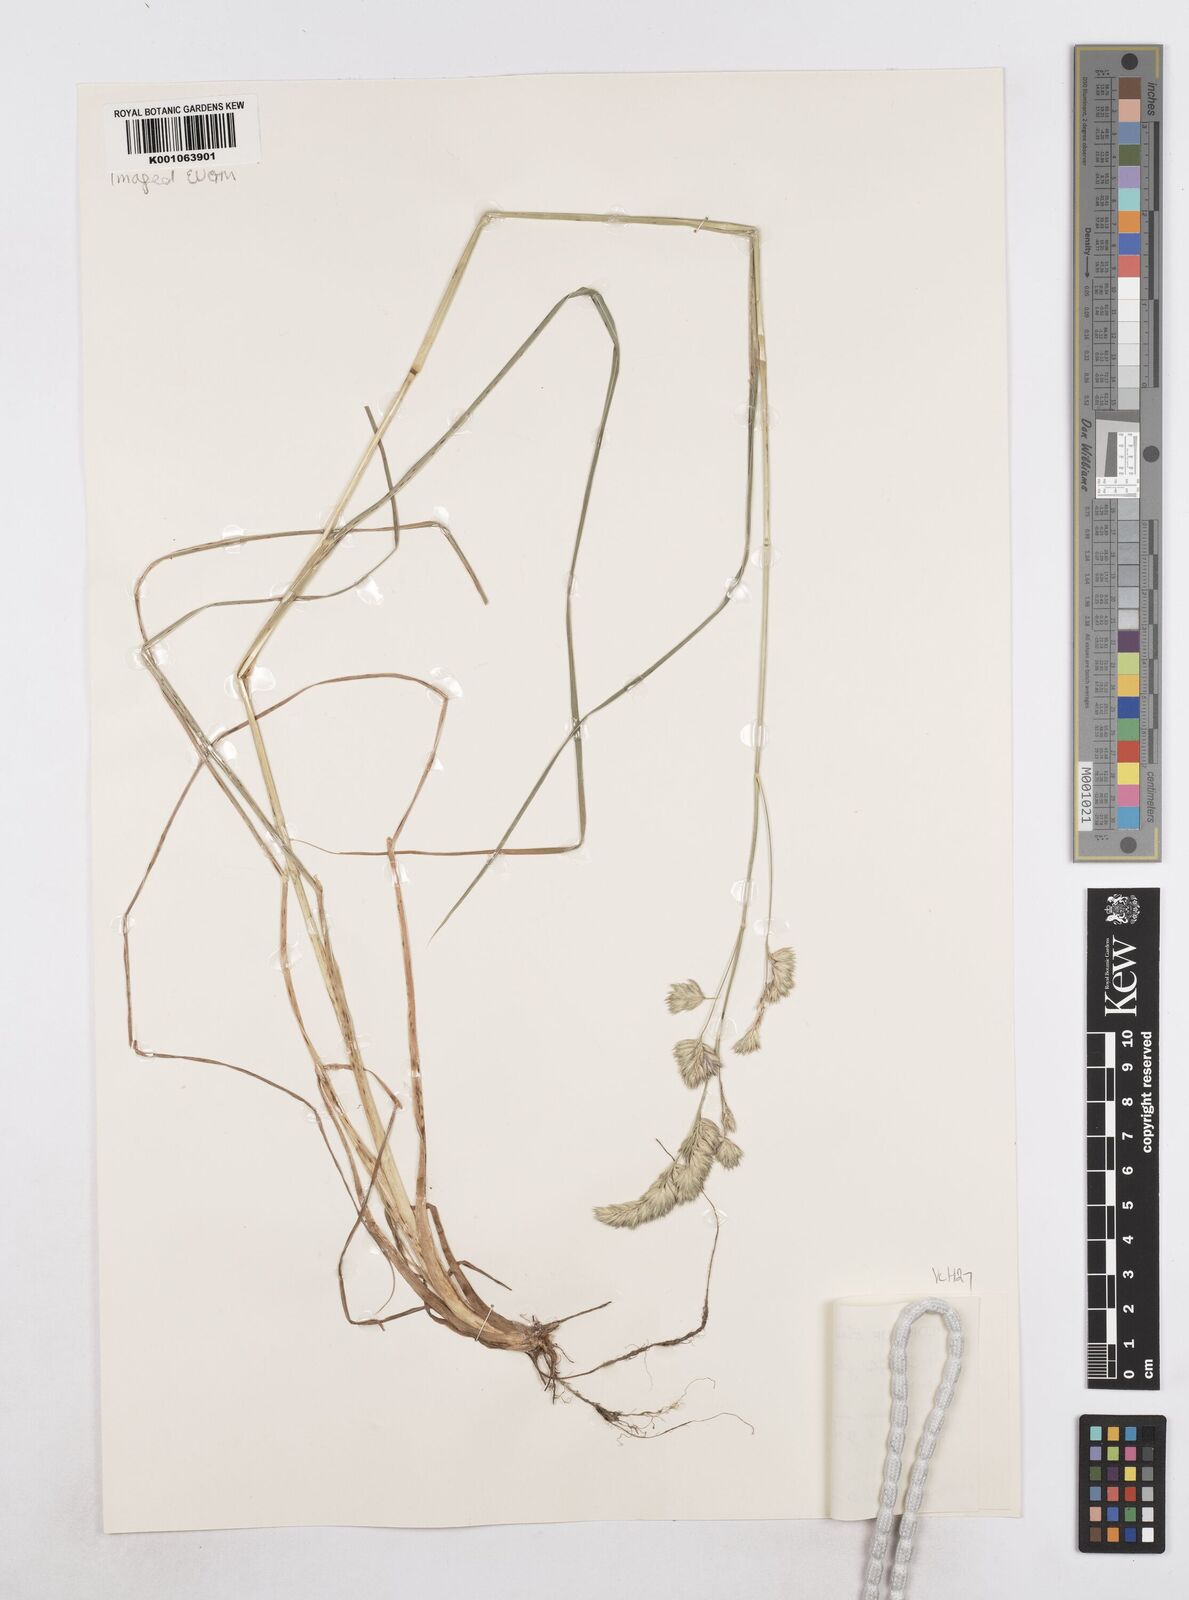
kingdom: Plantae
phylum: Tracheophyta
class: Liliopsida
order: Poales
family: Poaceae
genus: Dactylis
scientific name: Dactylis glomerata
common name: Orchardgrass
